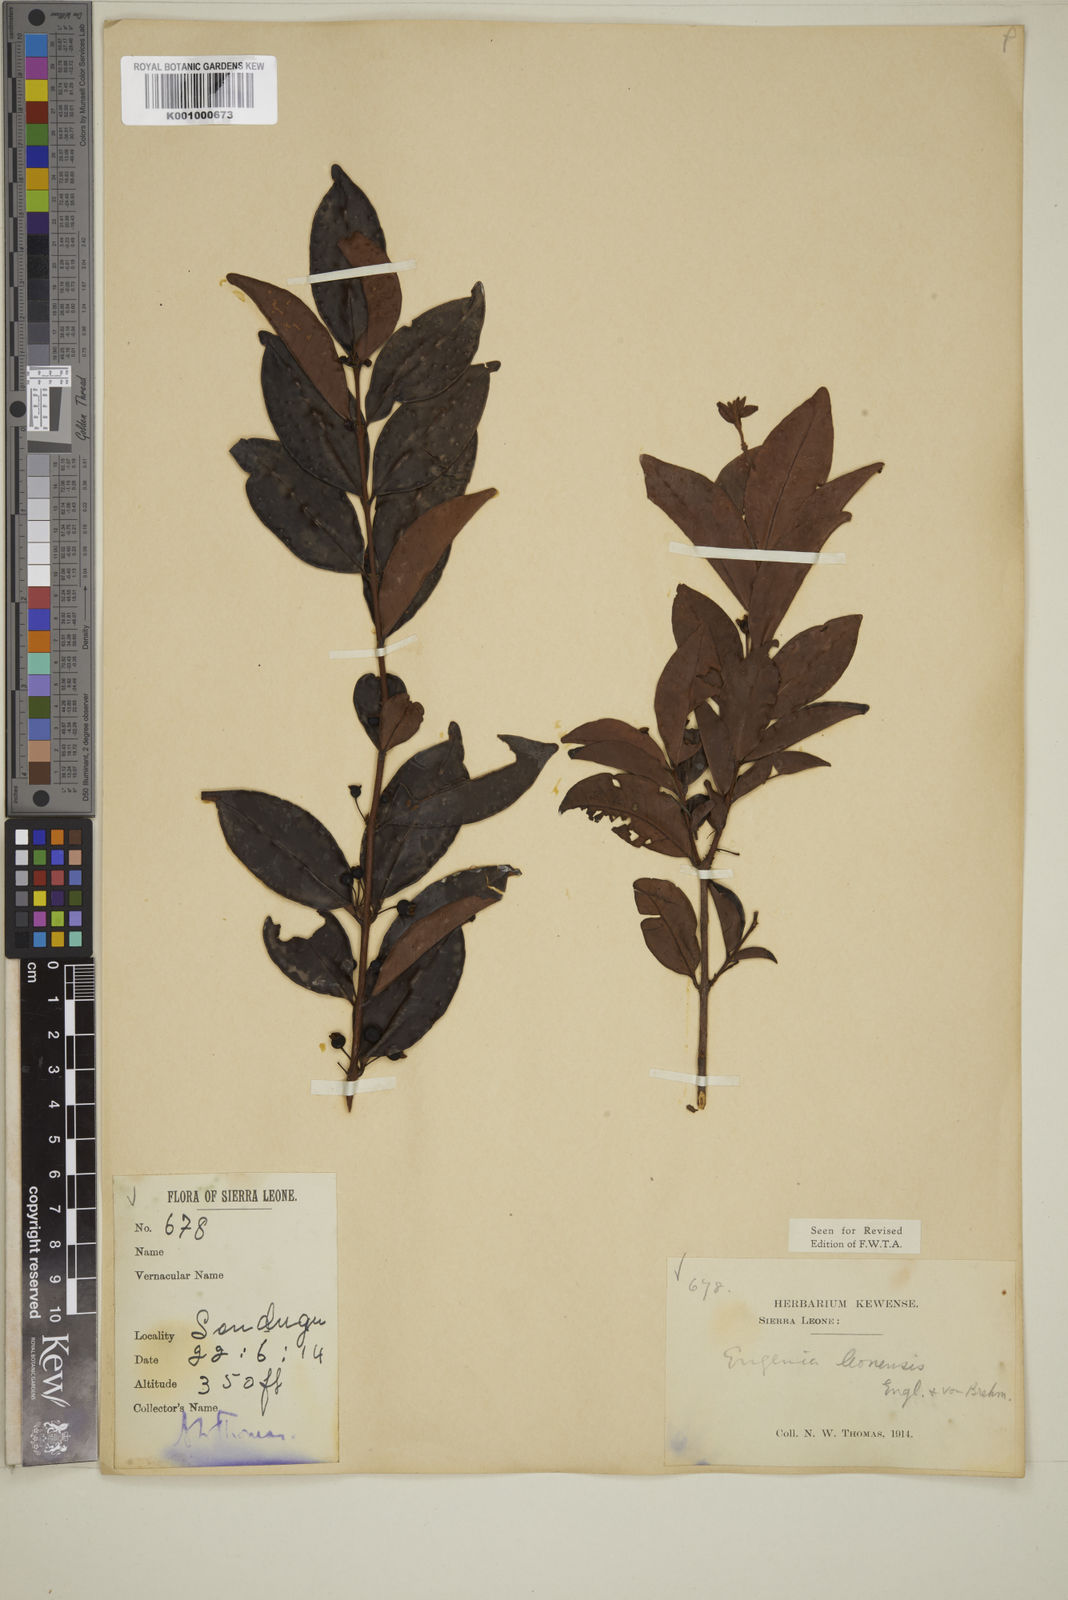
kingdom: Plantae
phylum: Tracheophyta
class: Magnoliopsida
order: Myrtales
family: Myrtaceae
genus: Eugenia
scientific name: Eugenia leonensis
